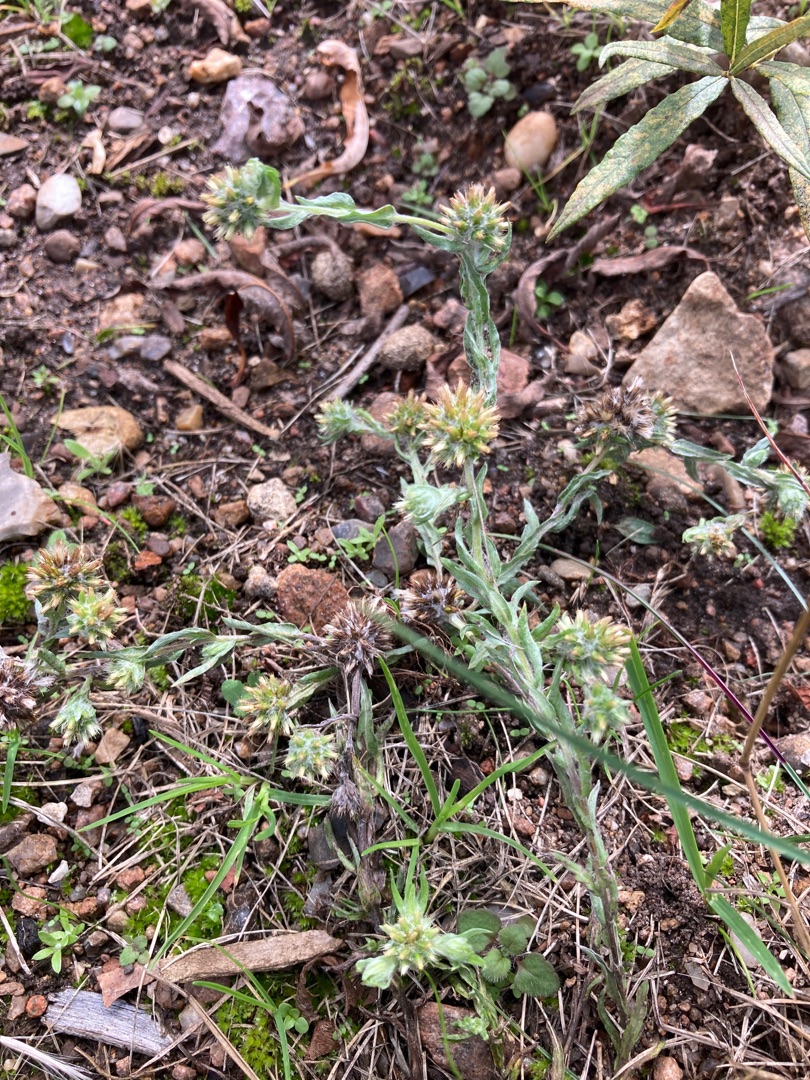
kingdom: Plantae
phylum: Tracheophyta
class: Magnoliopsida
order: Asterales
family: Asteraceae
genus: Filago
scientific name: Filago germanica
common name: Kugle-museurt
